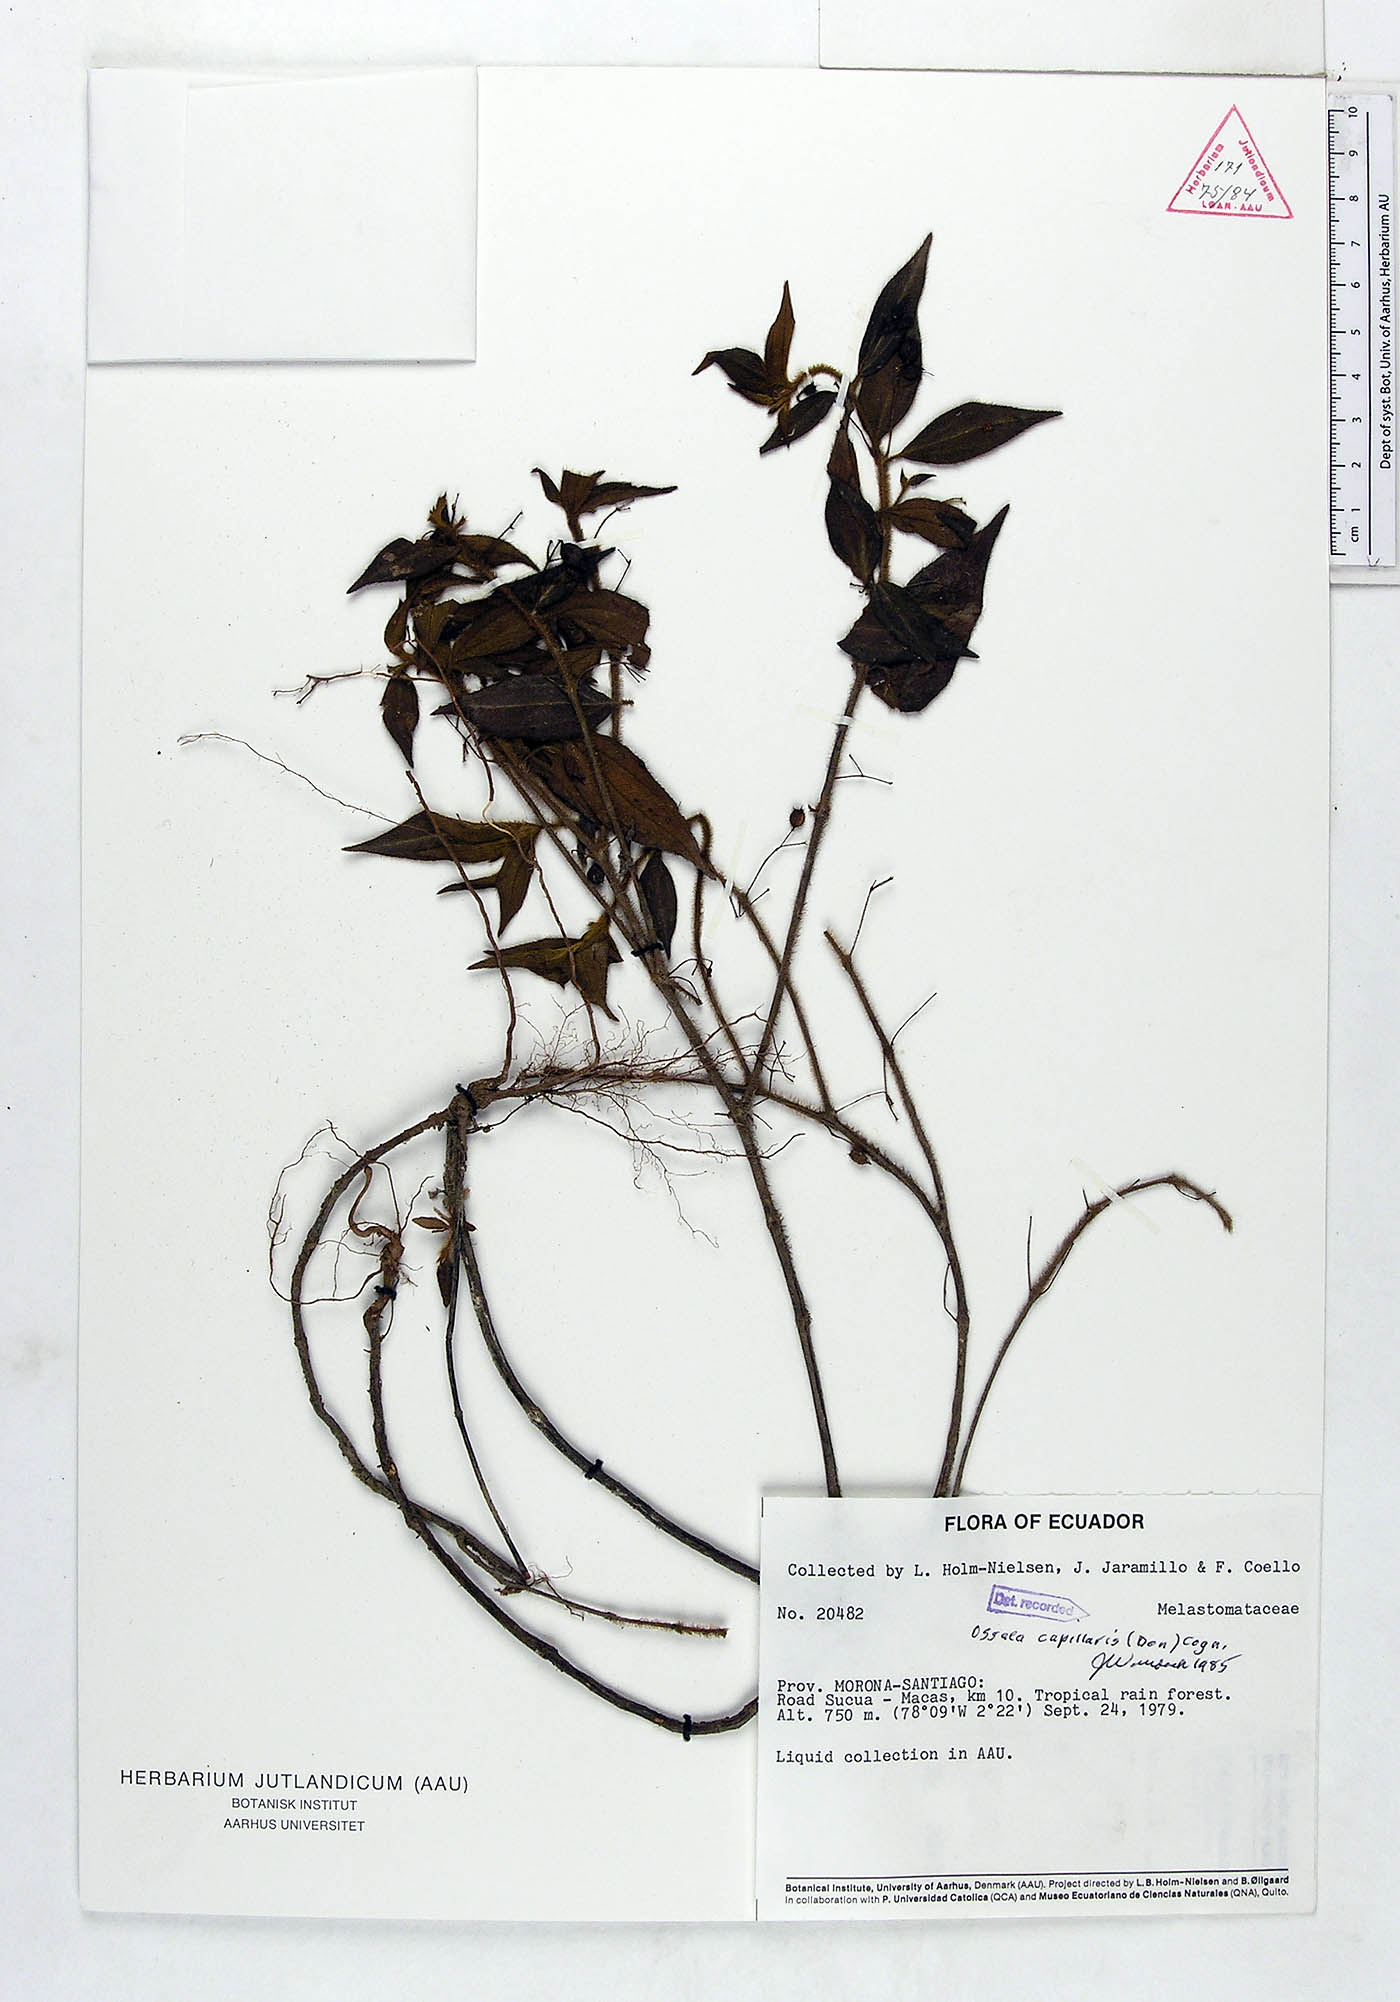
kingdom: Plantae
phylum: Tracheophyta
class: Magnoliopsida
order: Myrtales
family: Melastomataceae
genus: Miconia
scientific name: Miconia leptopus
